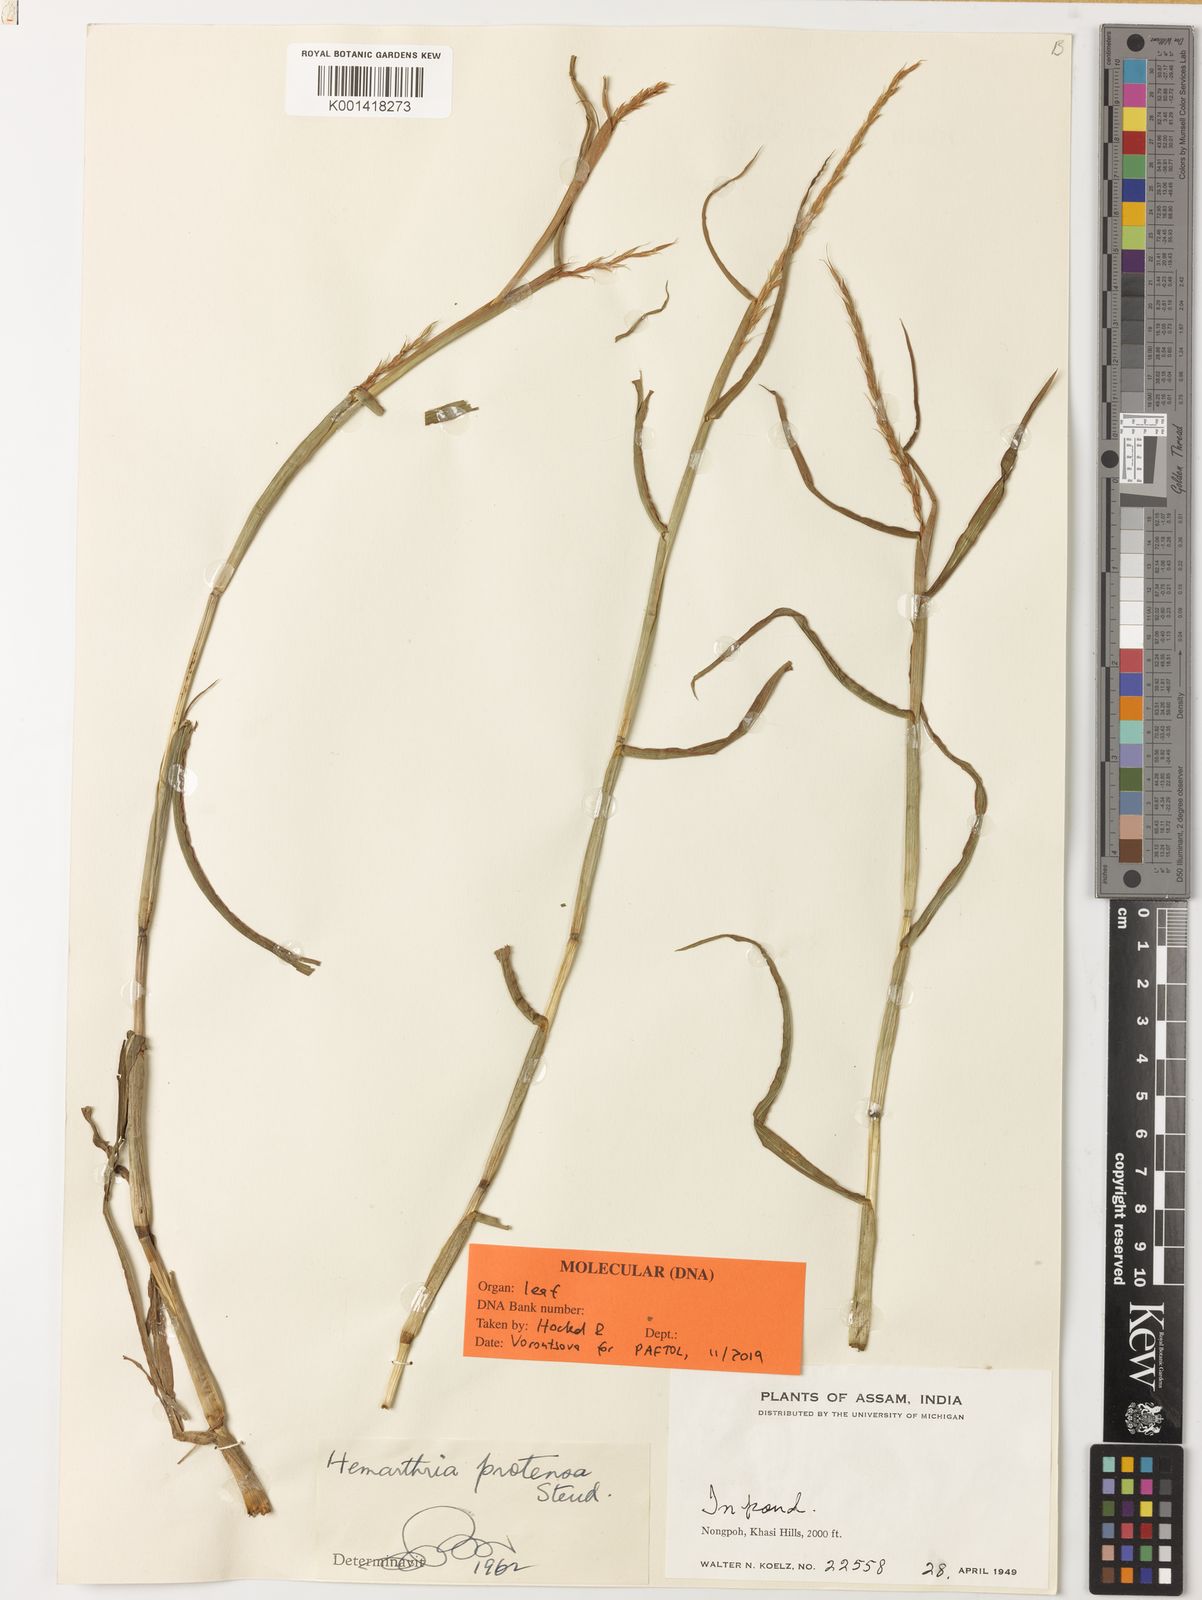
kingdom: Plantae
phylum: Tracheophyta
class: Liliopsida
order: Poales
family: Poaceae
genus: Hemarthria
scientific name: Hemarthria protensa
